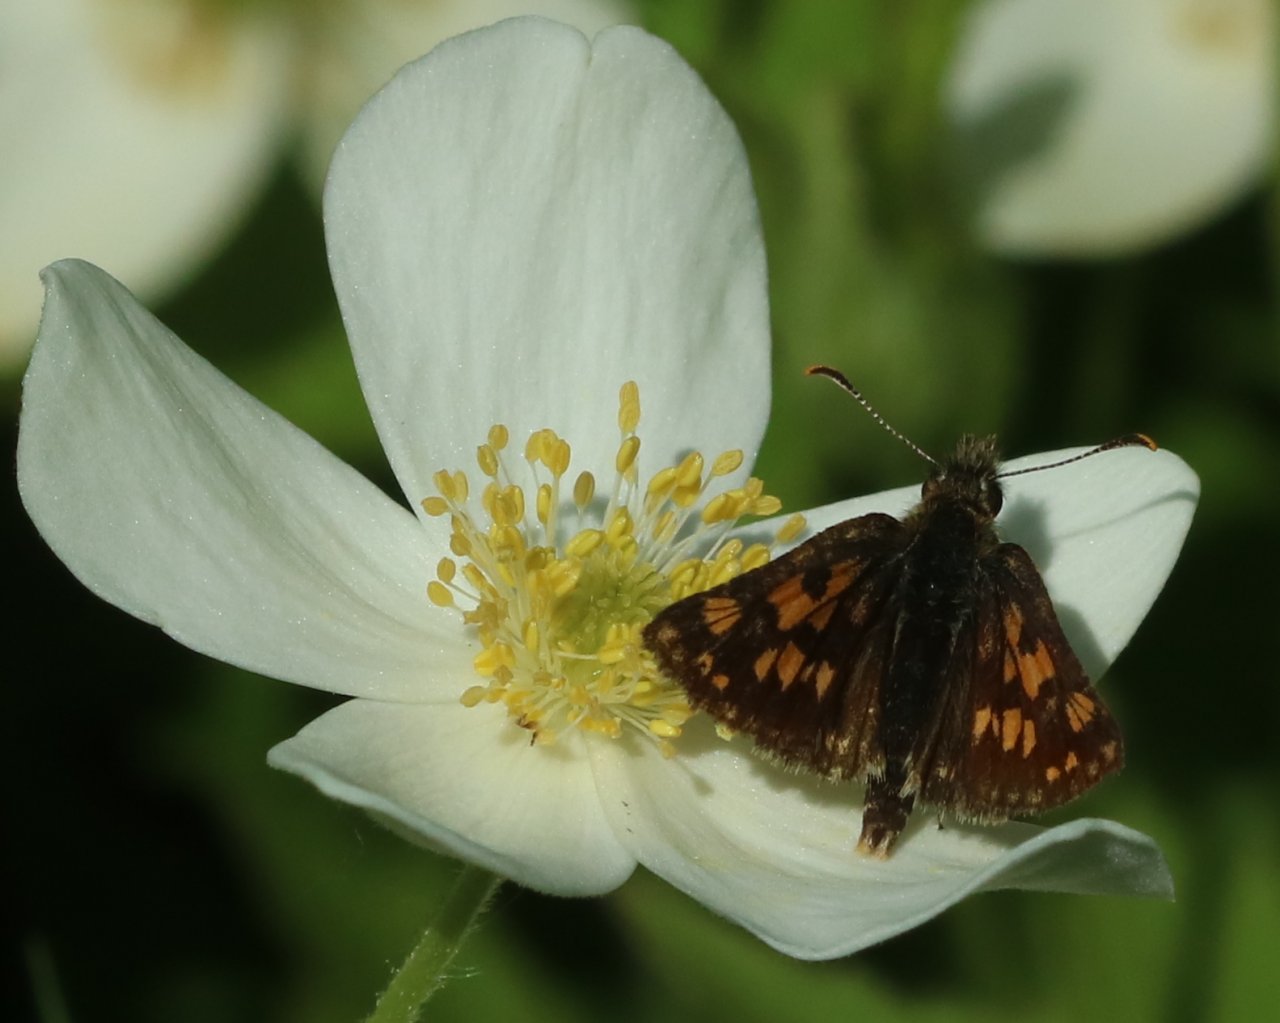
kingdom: Animalia
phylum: Arthropoda
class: Insecta
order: Lepidoptera
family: Hesperiidae
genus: Carterocephalus
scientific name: Carterocephalus palaemon
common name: Chequered Skipper
